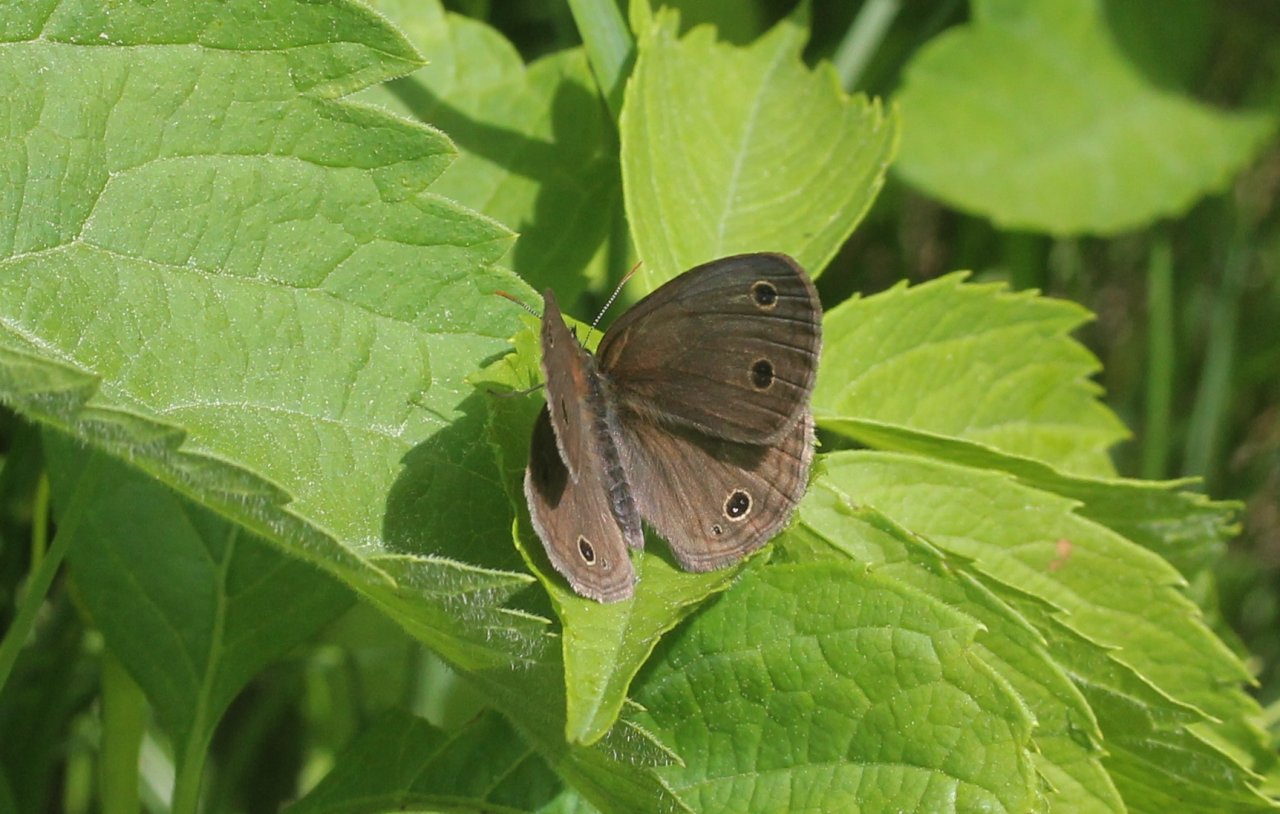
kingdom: Animalia
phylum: Arthropoda
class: Insecta
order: Lepidoptera
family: Nymphalidae
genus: Euptychia
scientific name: Euptychia cymela
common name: Little Wood Satyr
